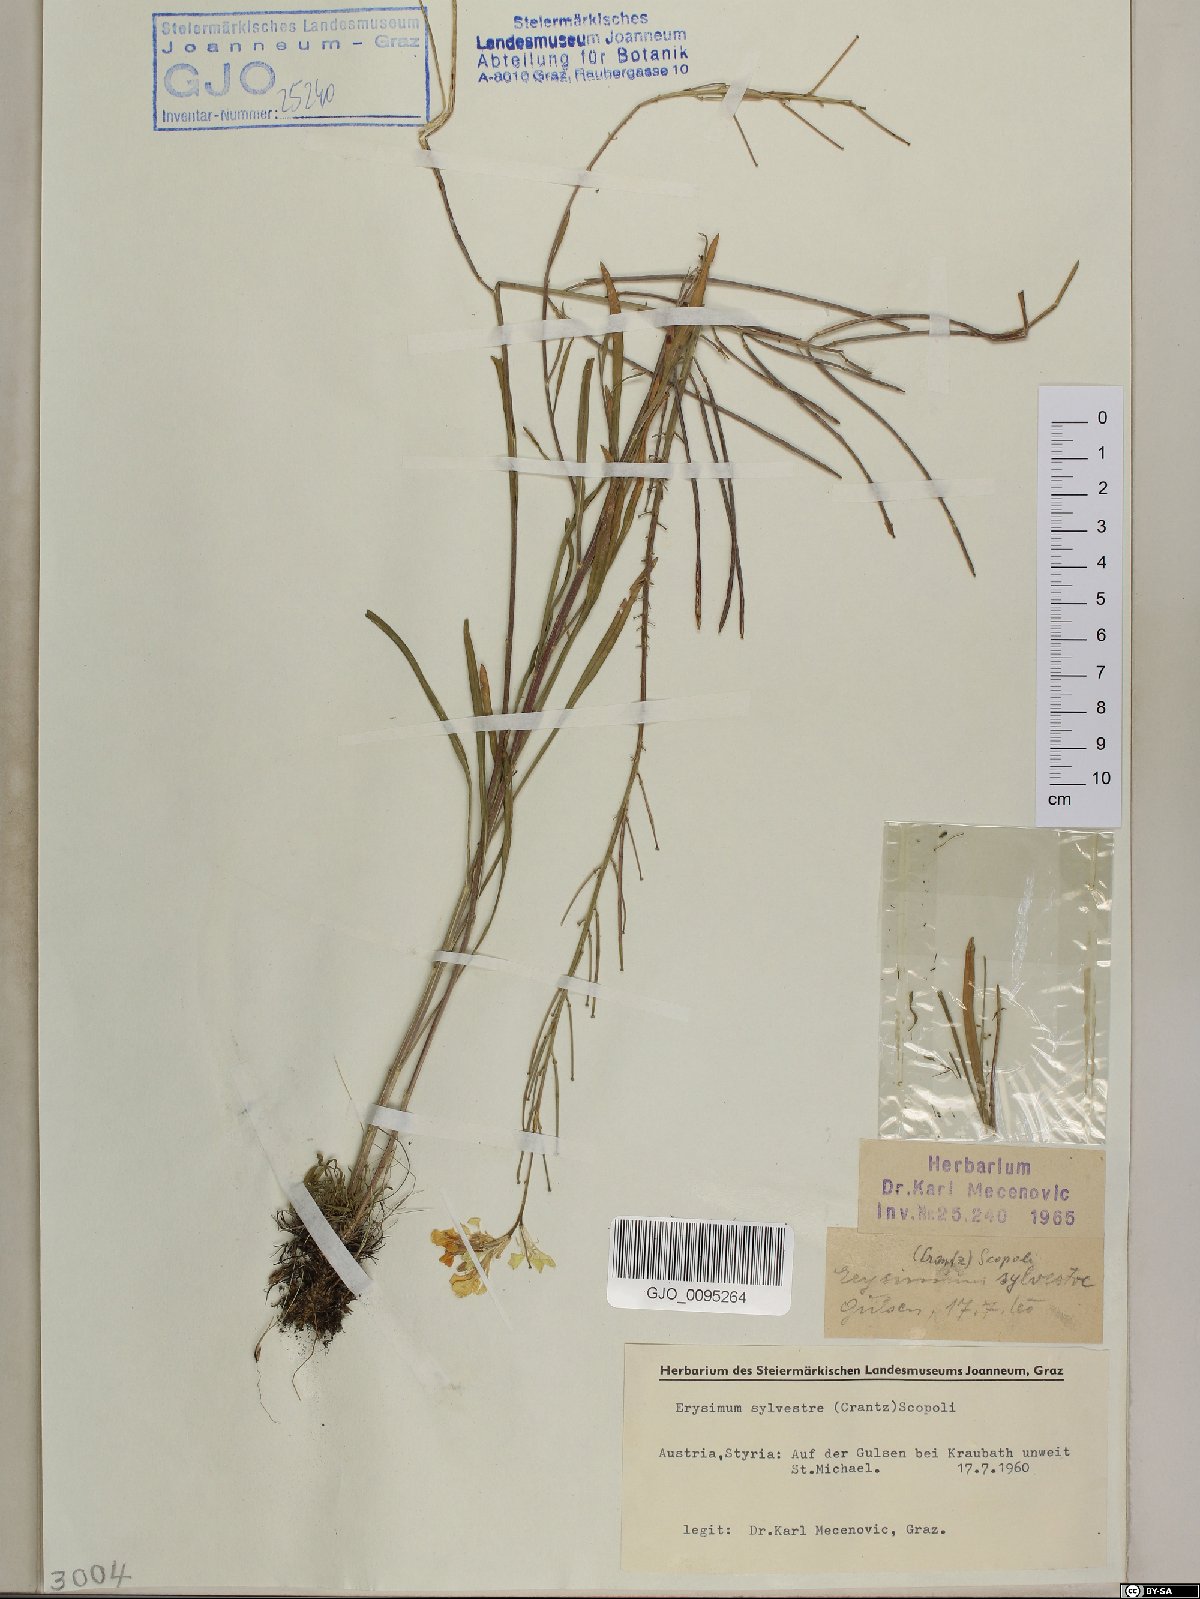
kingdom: Plantae
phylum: Tracheophyta
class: Magnoliopsida
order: Brassicales
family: Brassicaceae
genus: Erysimum
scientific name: Erysimum sylvestre
